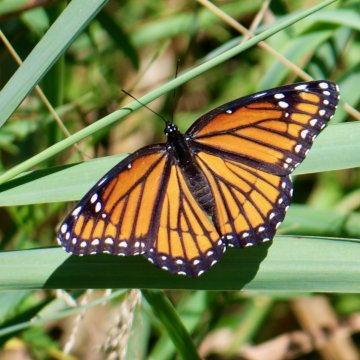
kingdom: Animalia
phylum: Arthropoda
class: Insecta
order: Lepidoptera
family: Nymphalidae
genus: Limenitis
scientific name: Limenitis archippus
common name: Viceroy
